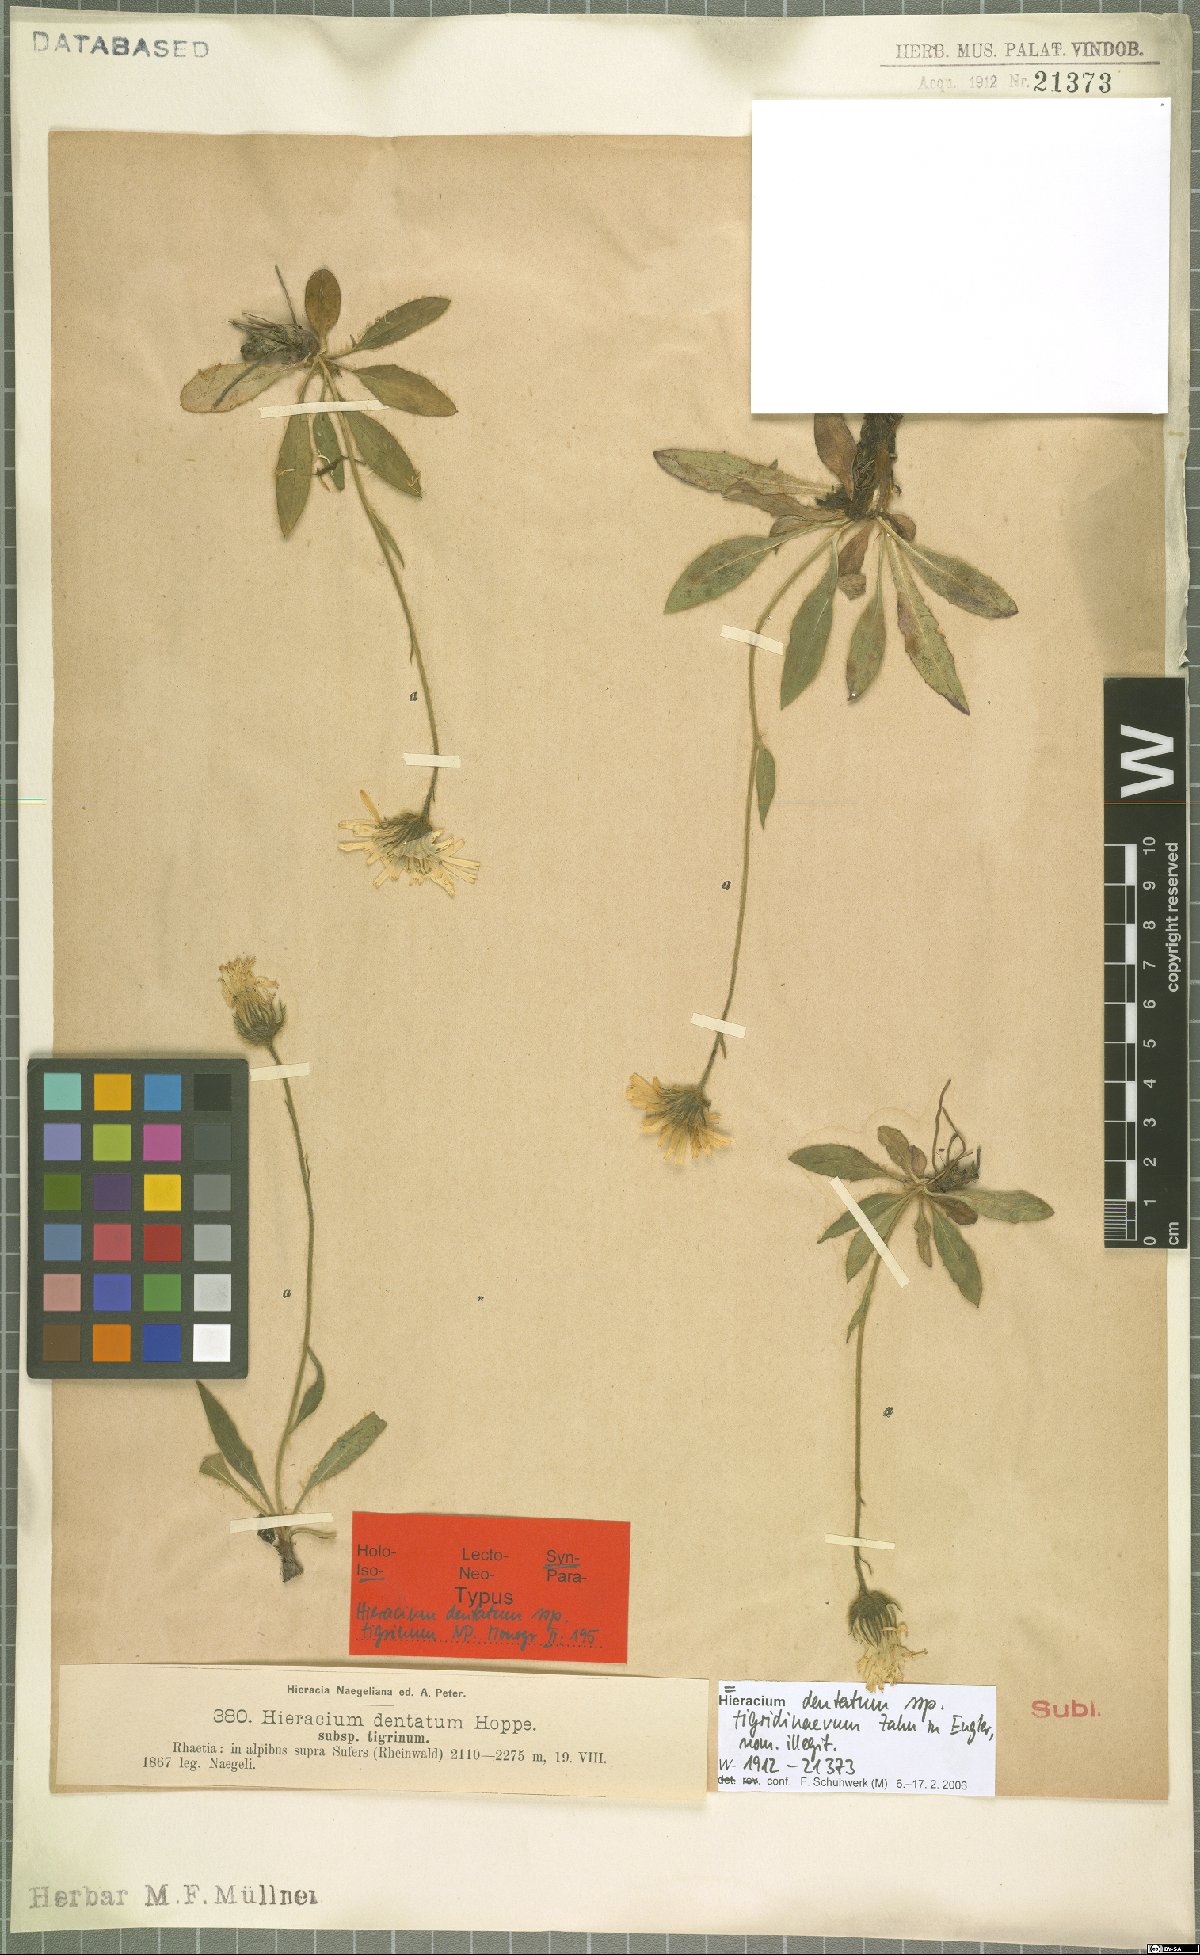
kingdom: Plantae
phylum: Tracheophyta
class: Magnoliopsida
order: Asterales
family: Asteraceae
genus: Hieracium
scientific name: Hieracium dentatum
